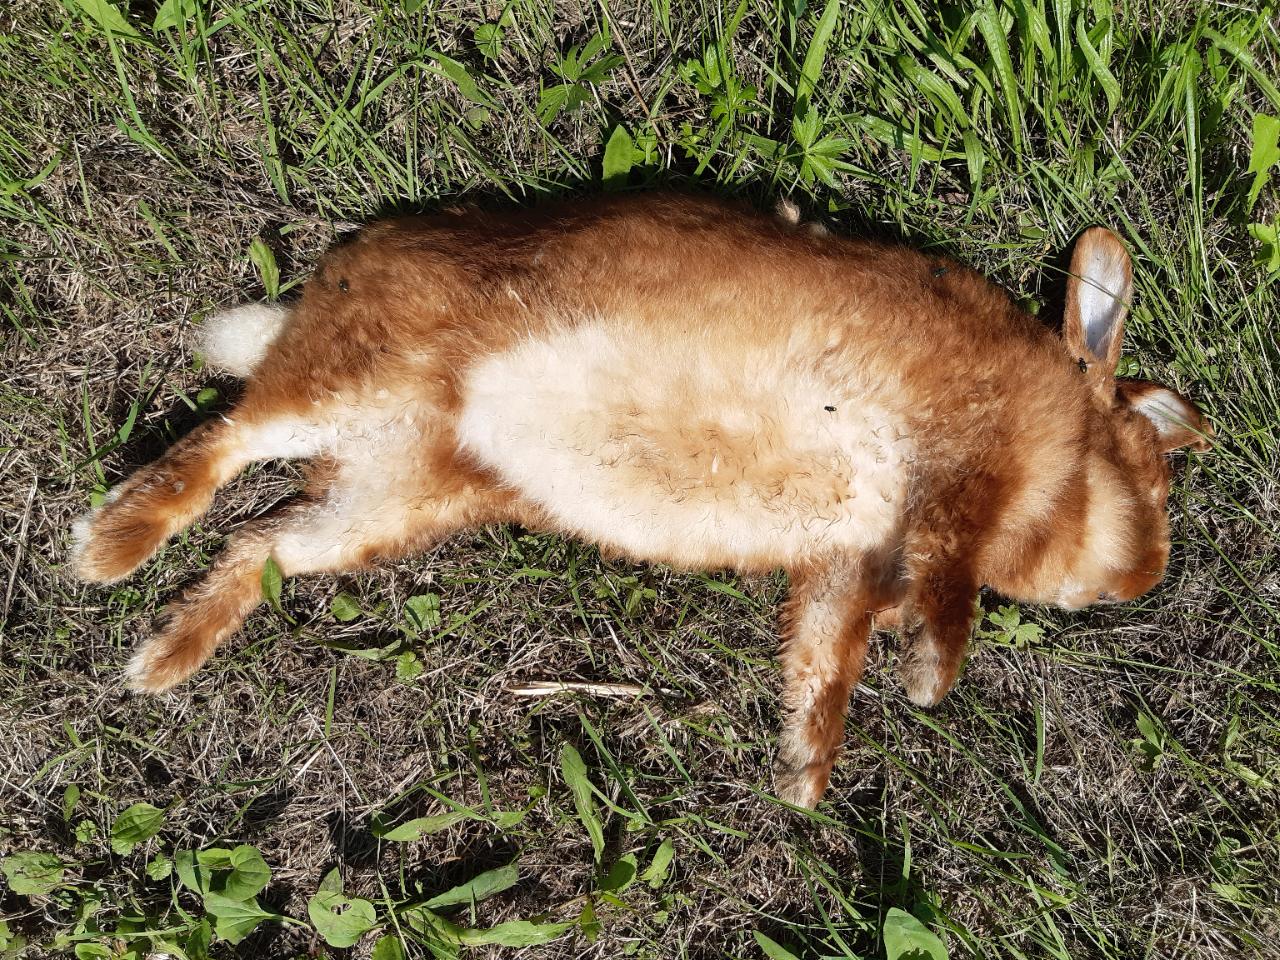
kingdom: Animalia
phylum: Chordata
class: Mammalia
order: Lagomorpha
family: Leporidae
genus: Oryctolagus
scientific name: Oryctolagus cuniculus
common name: European rabbit
